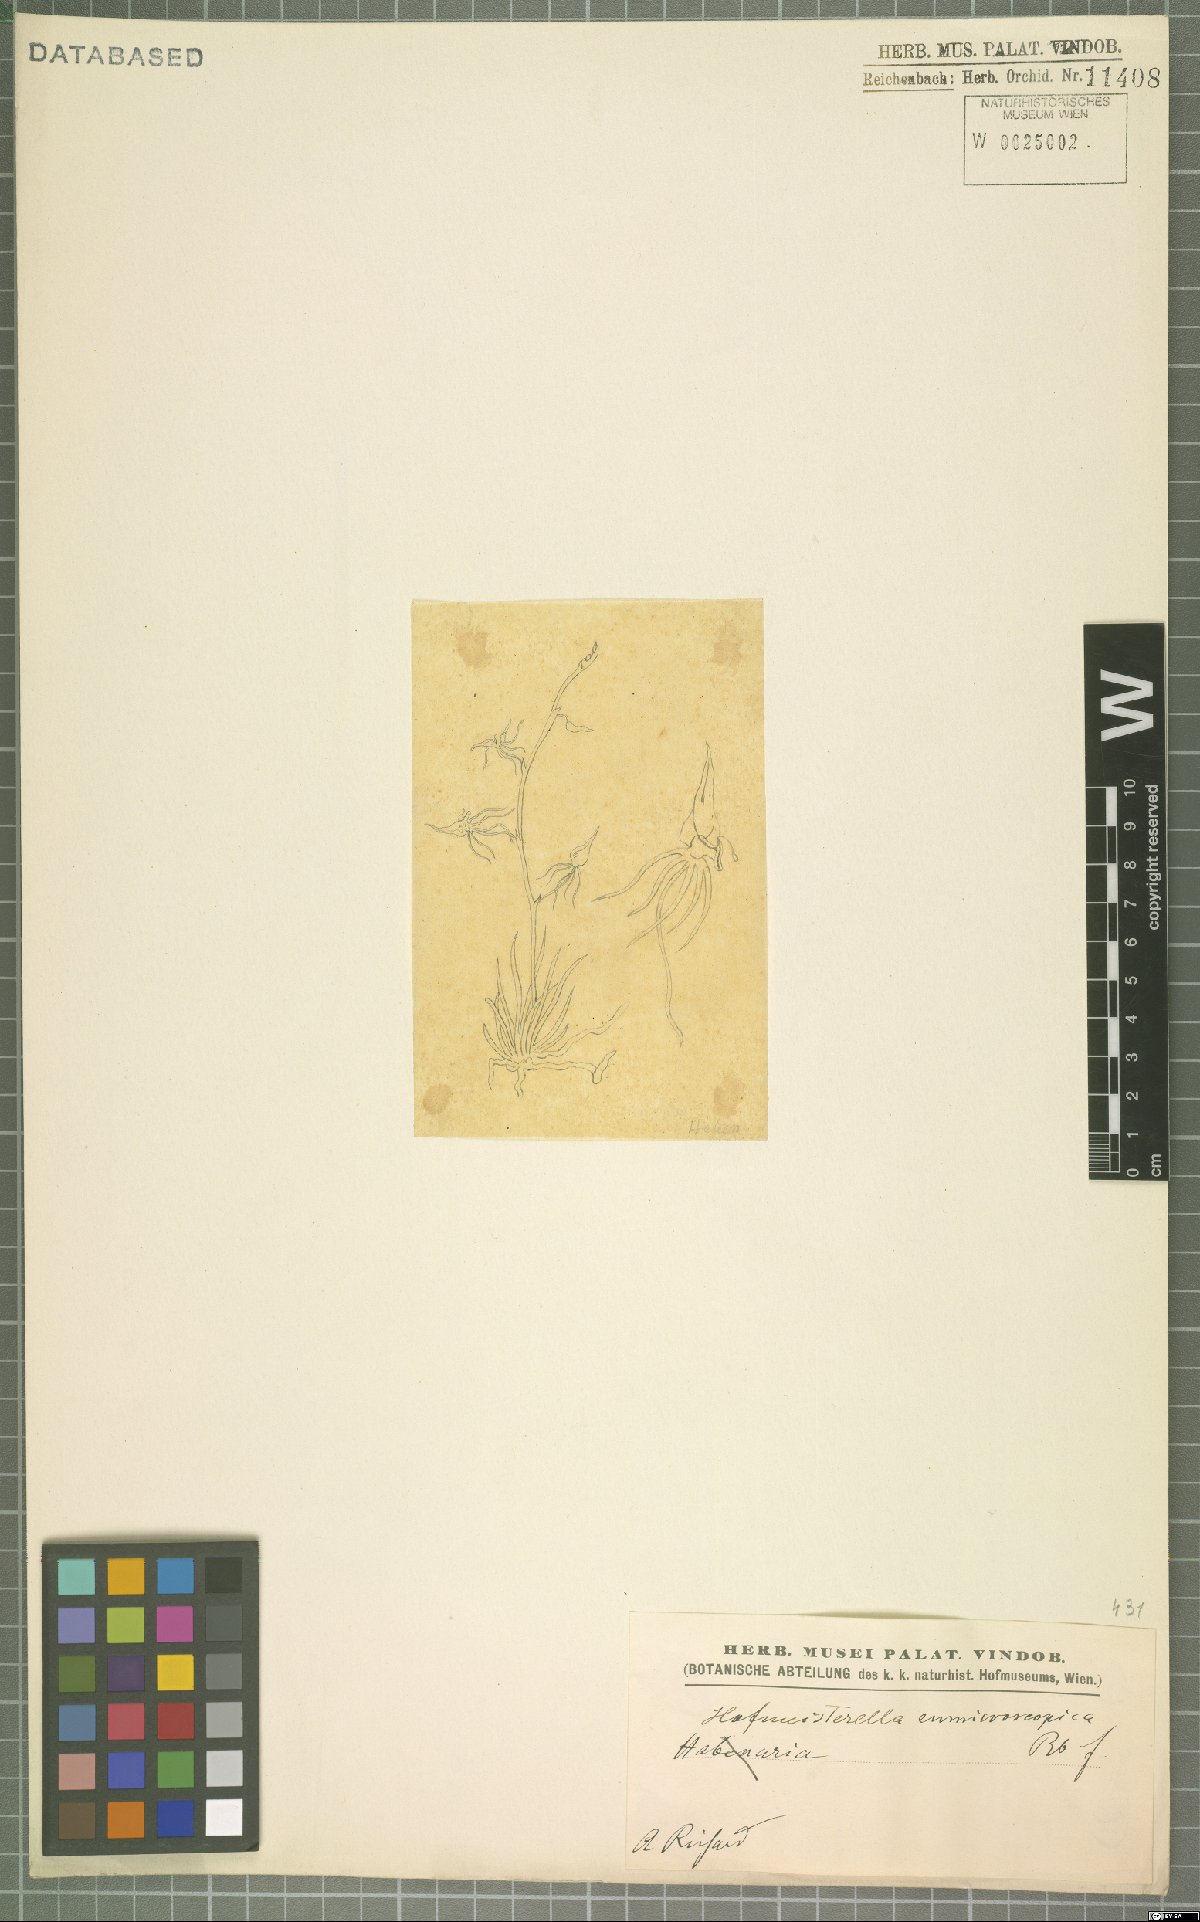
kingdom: Plantae
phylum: Tracheophyta
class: Liliopsida
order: Asparagales
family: Orchidaceae
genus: Hofmeisterella
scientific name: Hofmeisterella eumicroscopica
